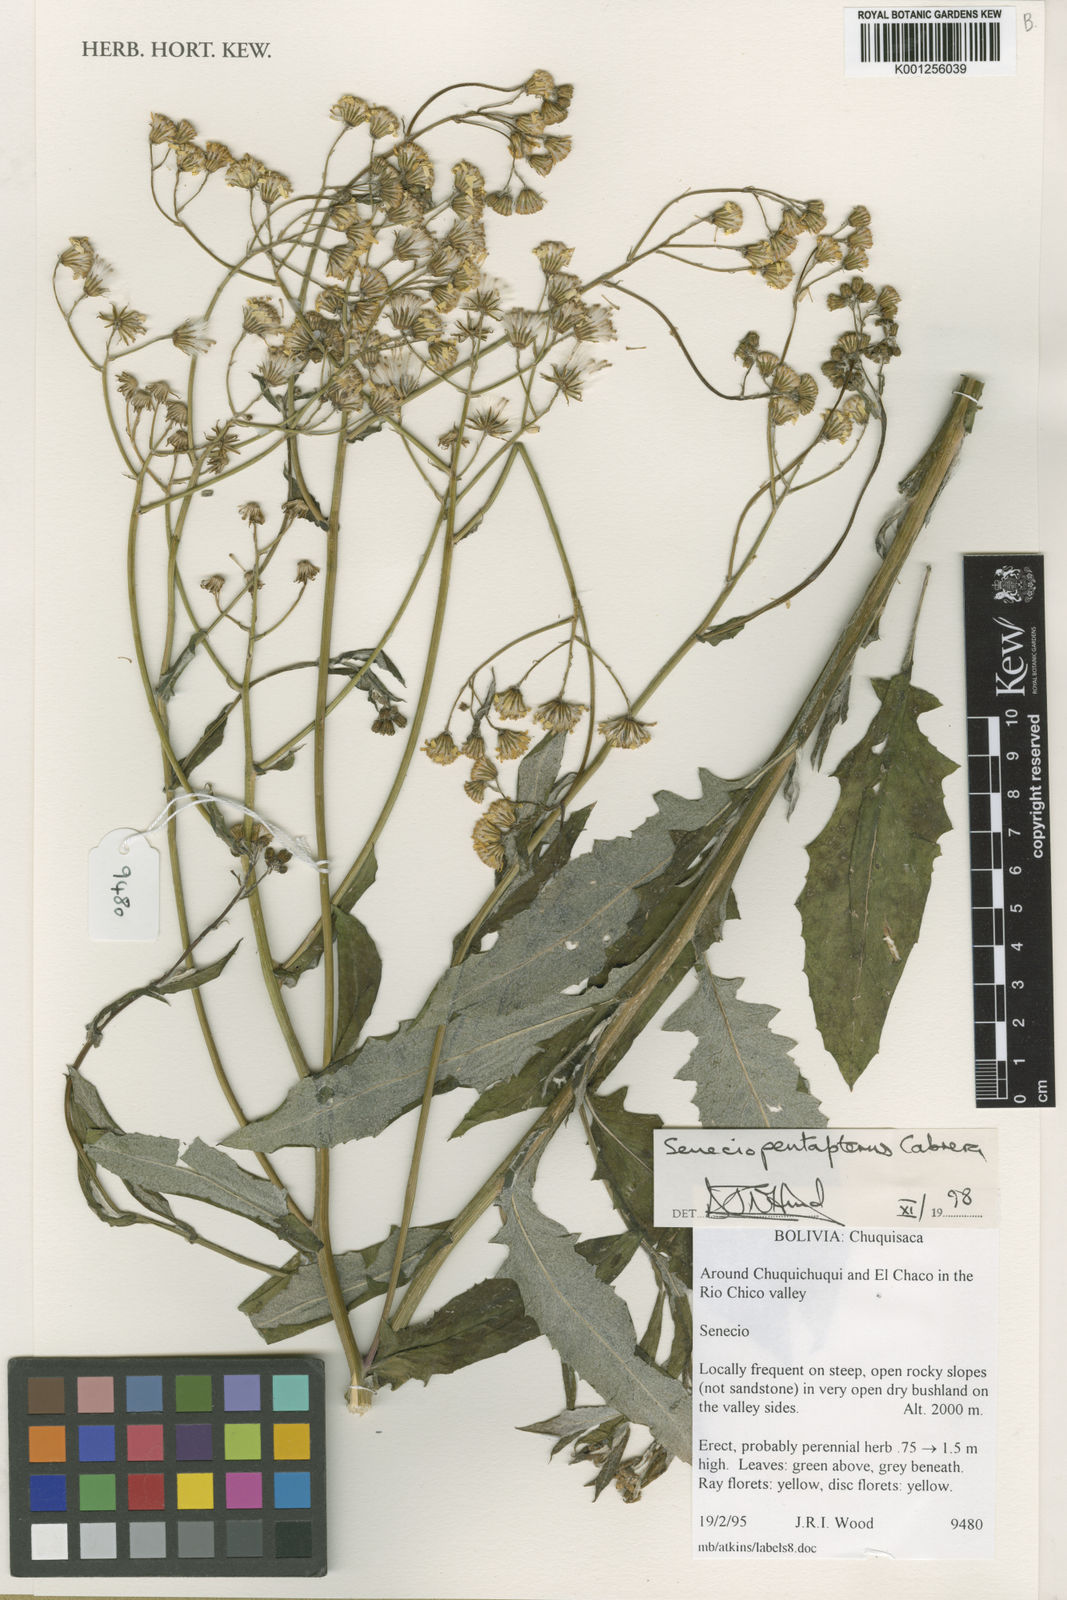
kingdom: Plantae
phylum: Tracheophyta
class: Magnoliopsida
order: Asterales
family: Asteraceae
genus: Senecio
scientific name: Senecio pentapterus
